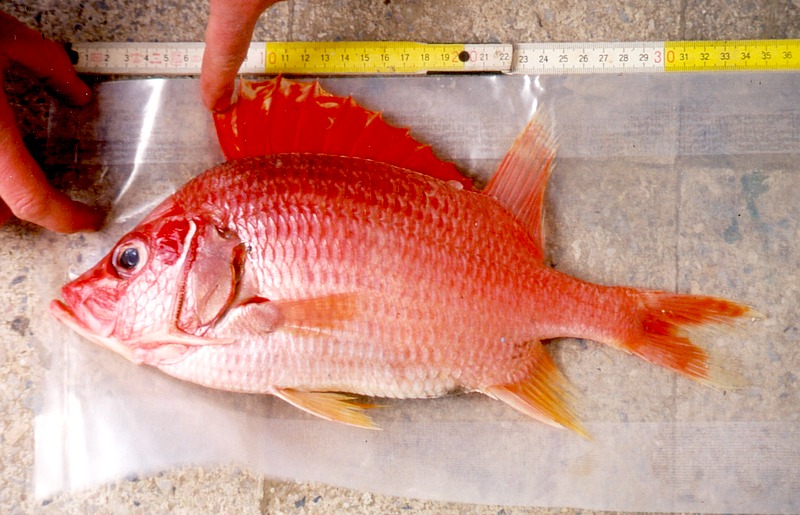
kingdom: Animalia
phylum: Chordata
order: Beryciformes
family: Holocentridae
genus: Sargocentron
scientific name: Sargocentron spiniferum
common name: Giant squirrelfish
